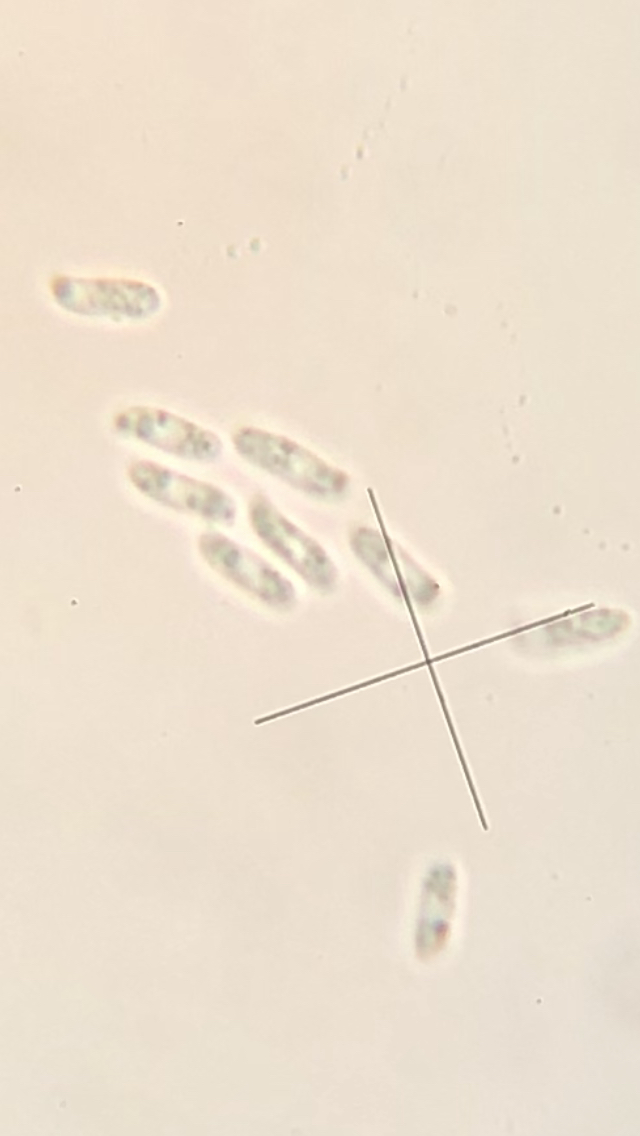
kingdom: Fungi
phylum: Basidiomycota
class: Agaricomycetes
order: Hymenochaetales
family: Hymenochaetaceae
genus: Fuscoporia
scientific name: Fuscoporia ferrea
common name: skorpe-ildporesvamp
